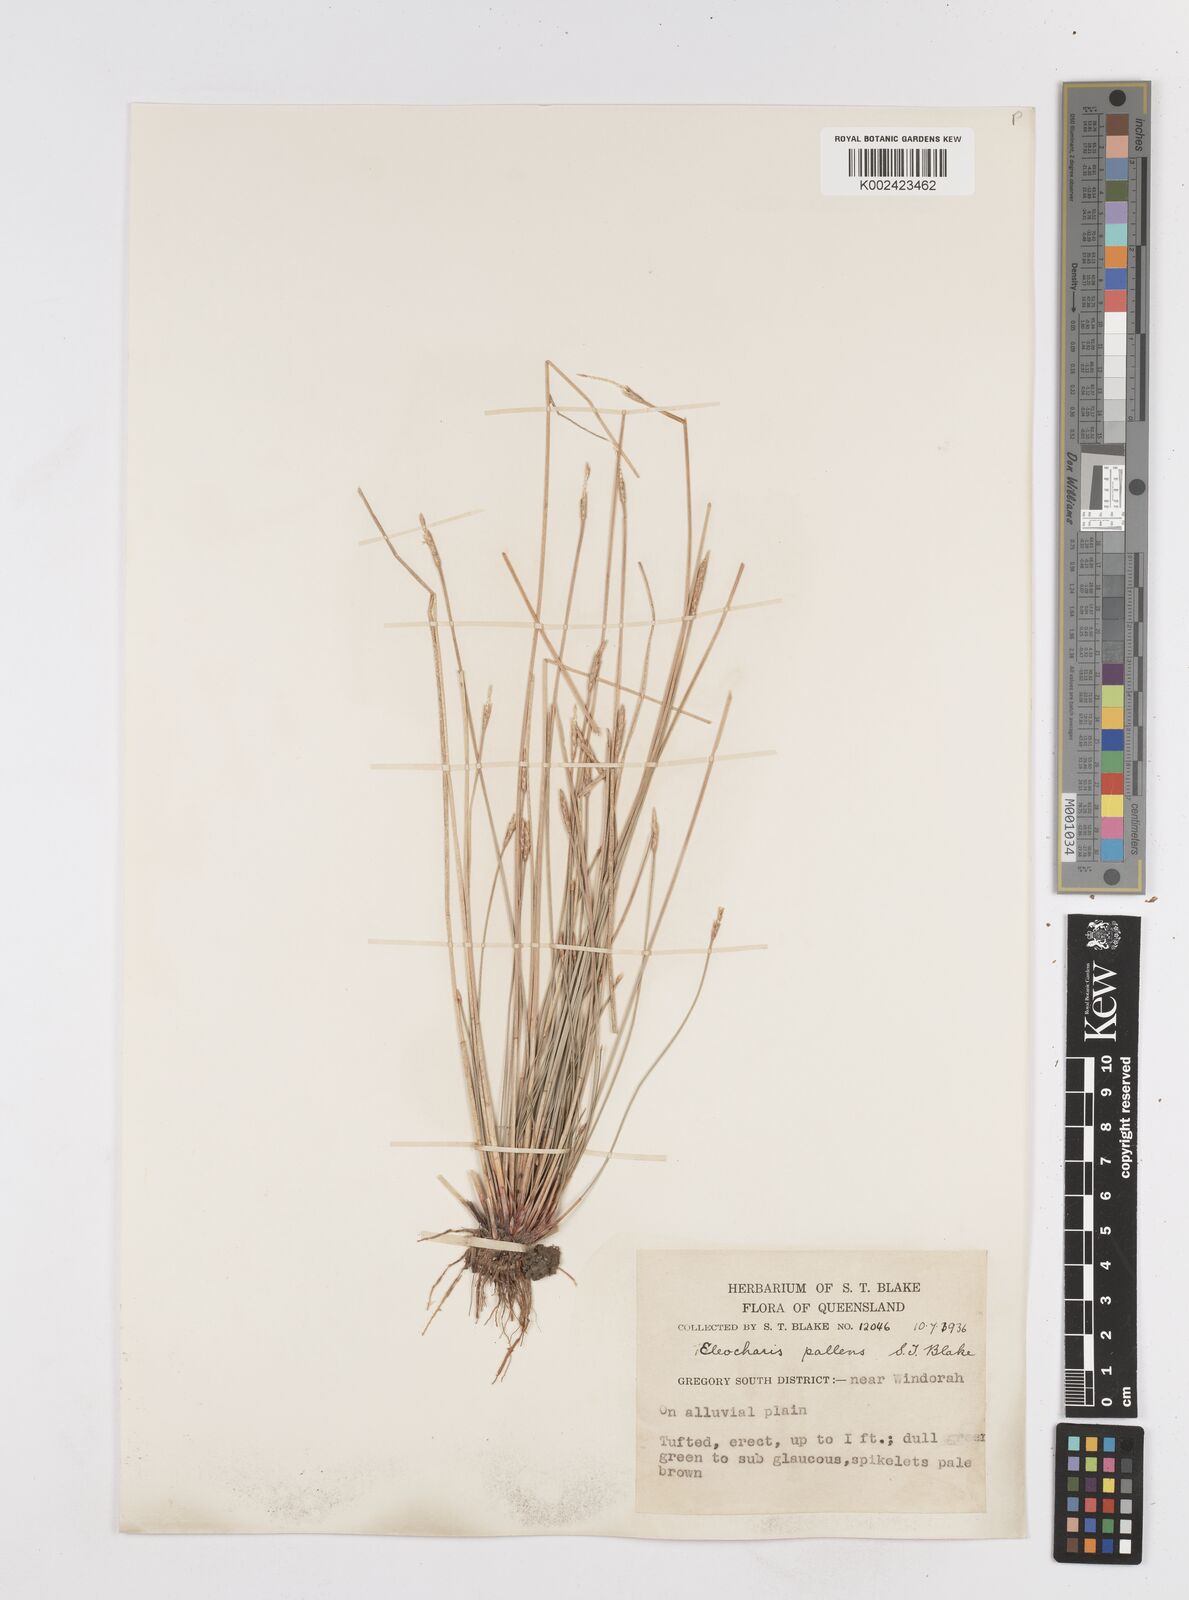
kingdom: Plantae
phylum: Tracheophyta
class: Liliopsida
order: Poales
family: Cyperaceae
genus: Eleocharis
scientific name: Eleocharis acuta
